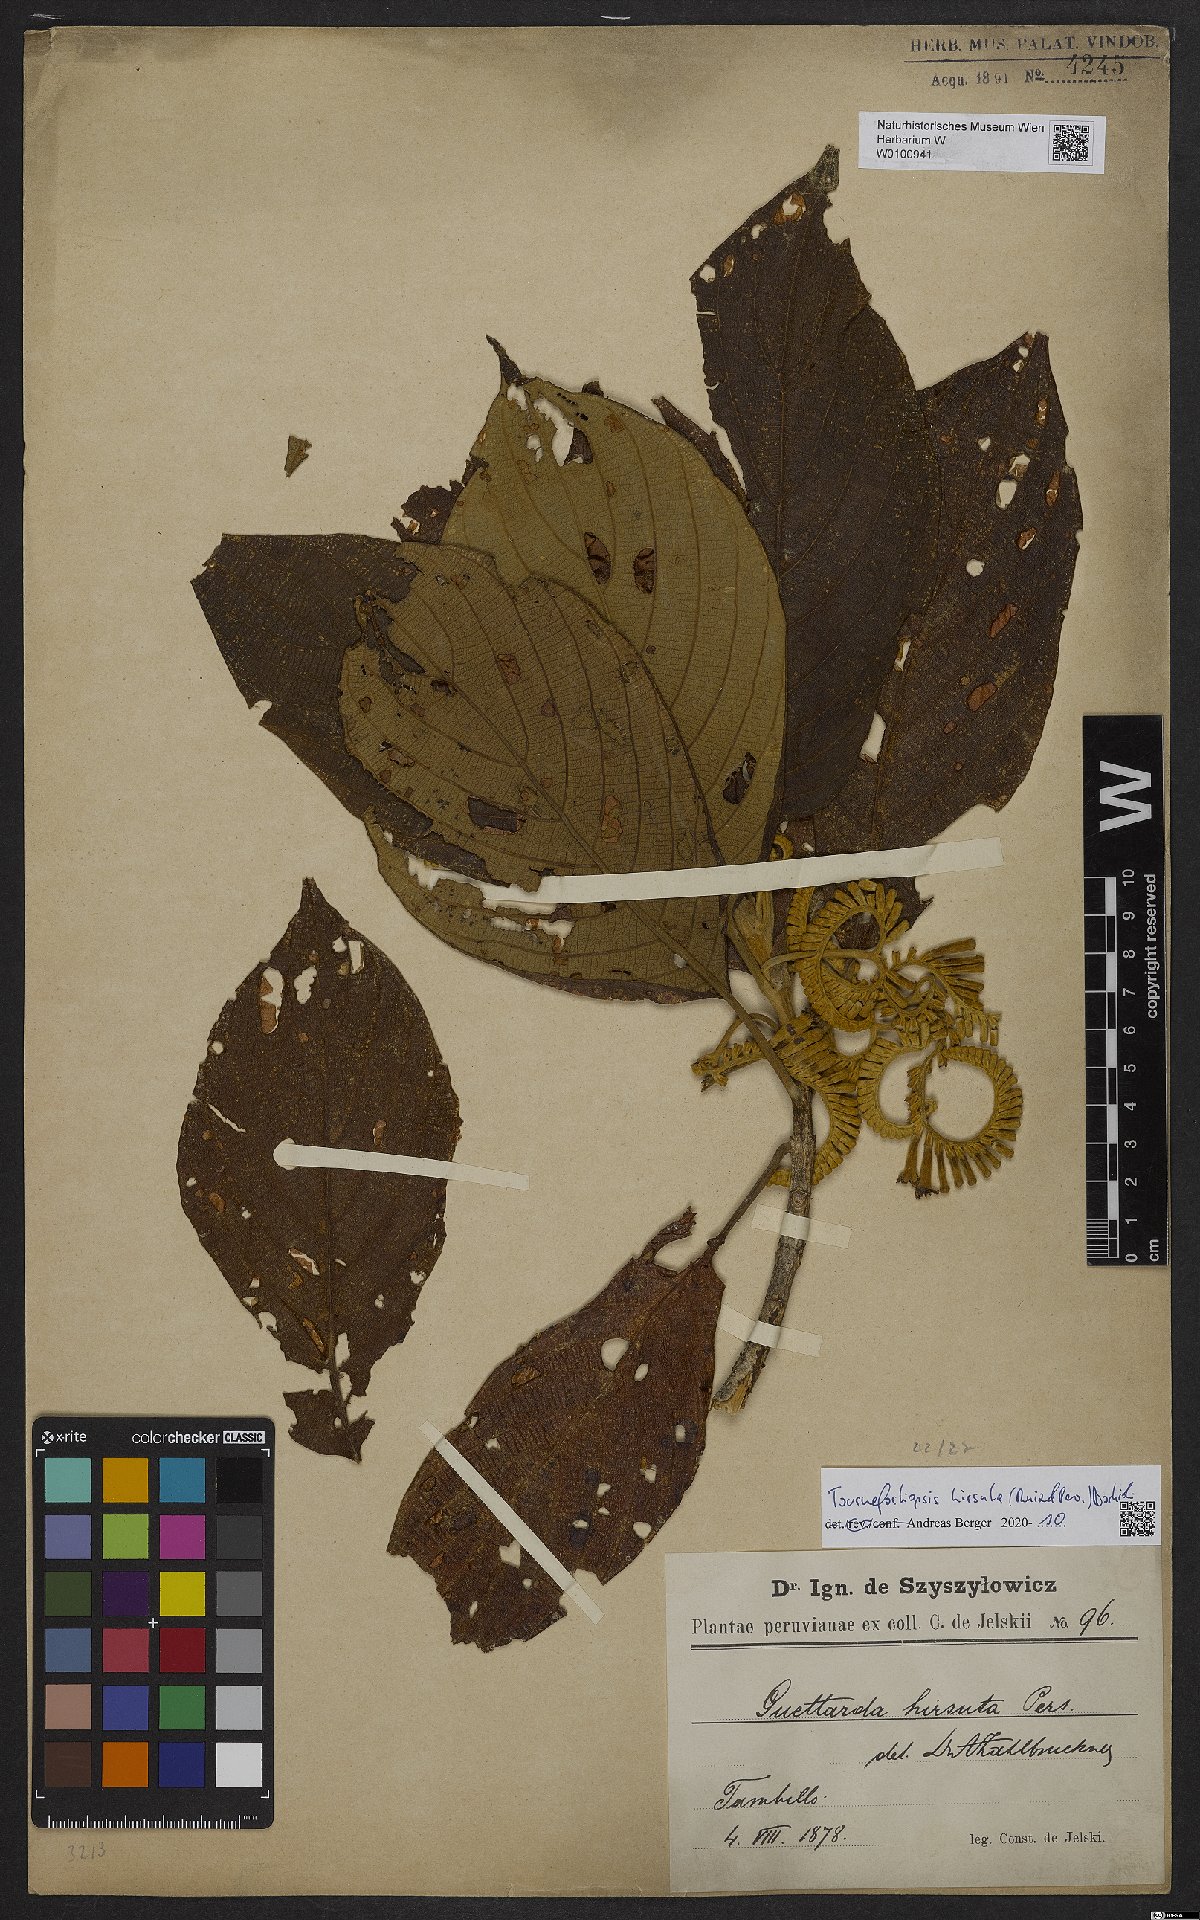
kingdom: Plantae
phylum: Tracheophyta
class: Magnoliopsida
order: Gentianales
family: Rubiaceae
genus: Tournefortiopsis
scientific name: Tournefortiopsis hirsuta
